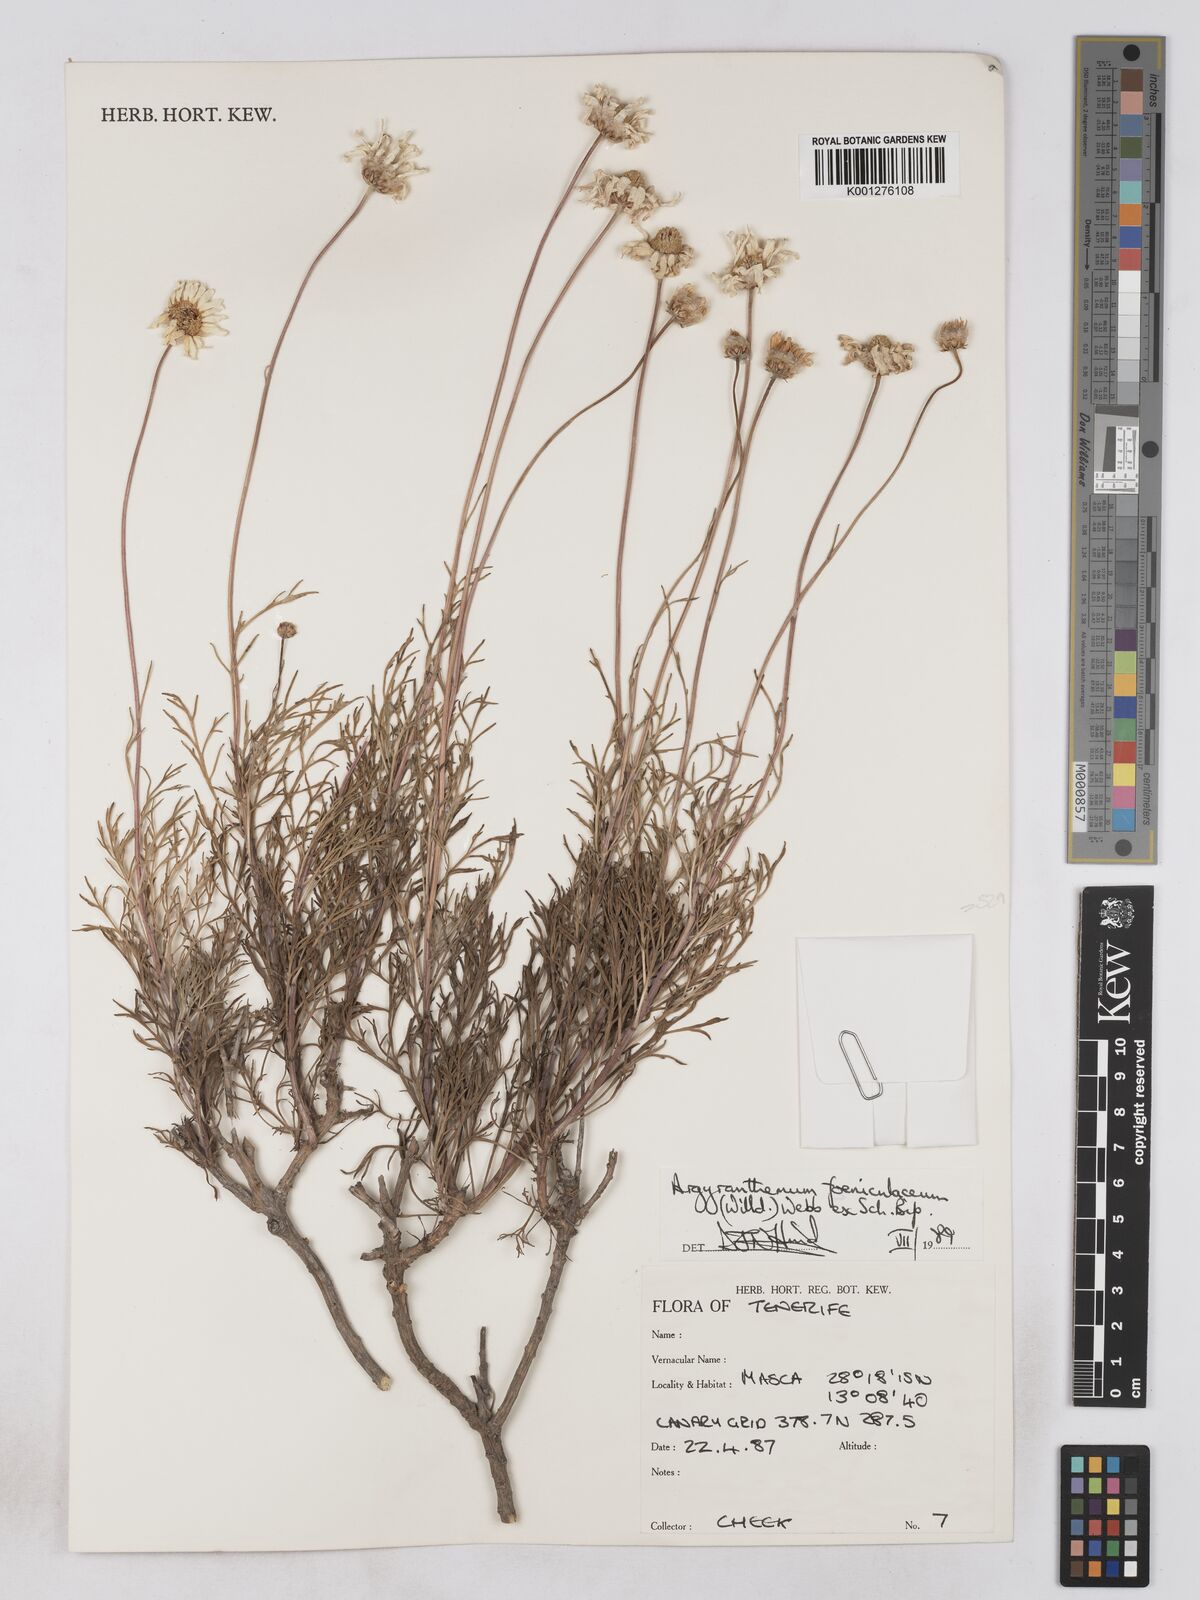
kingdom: Plantae
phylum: Tracheophyta
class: Magnoliopsida
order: Asterales
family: Asteraceae
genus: Argyranthemum
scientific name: Argyranthemum
